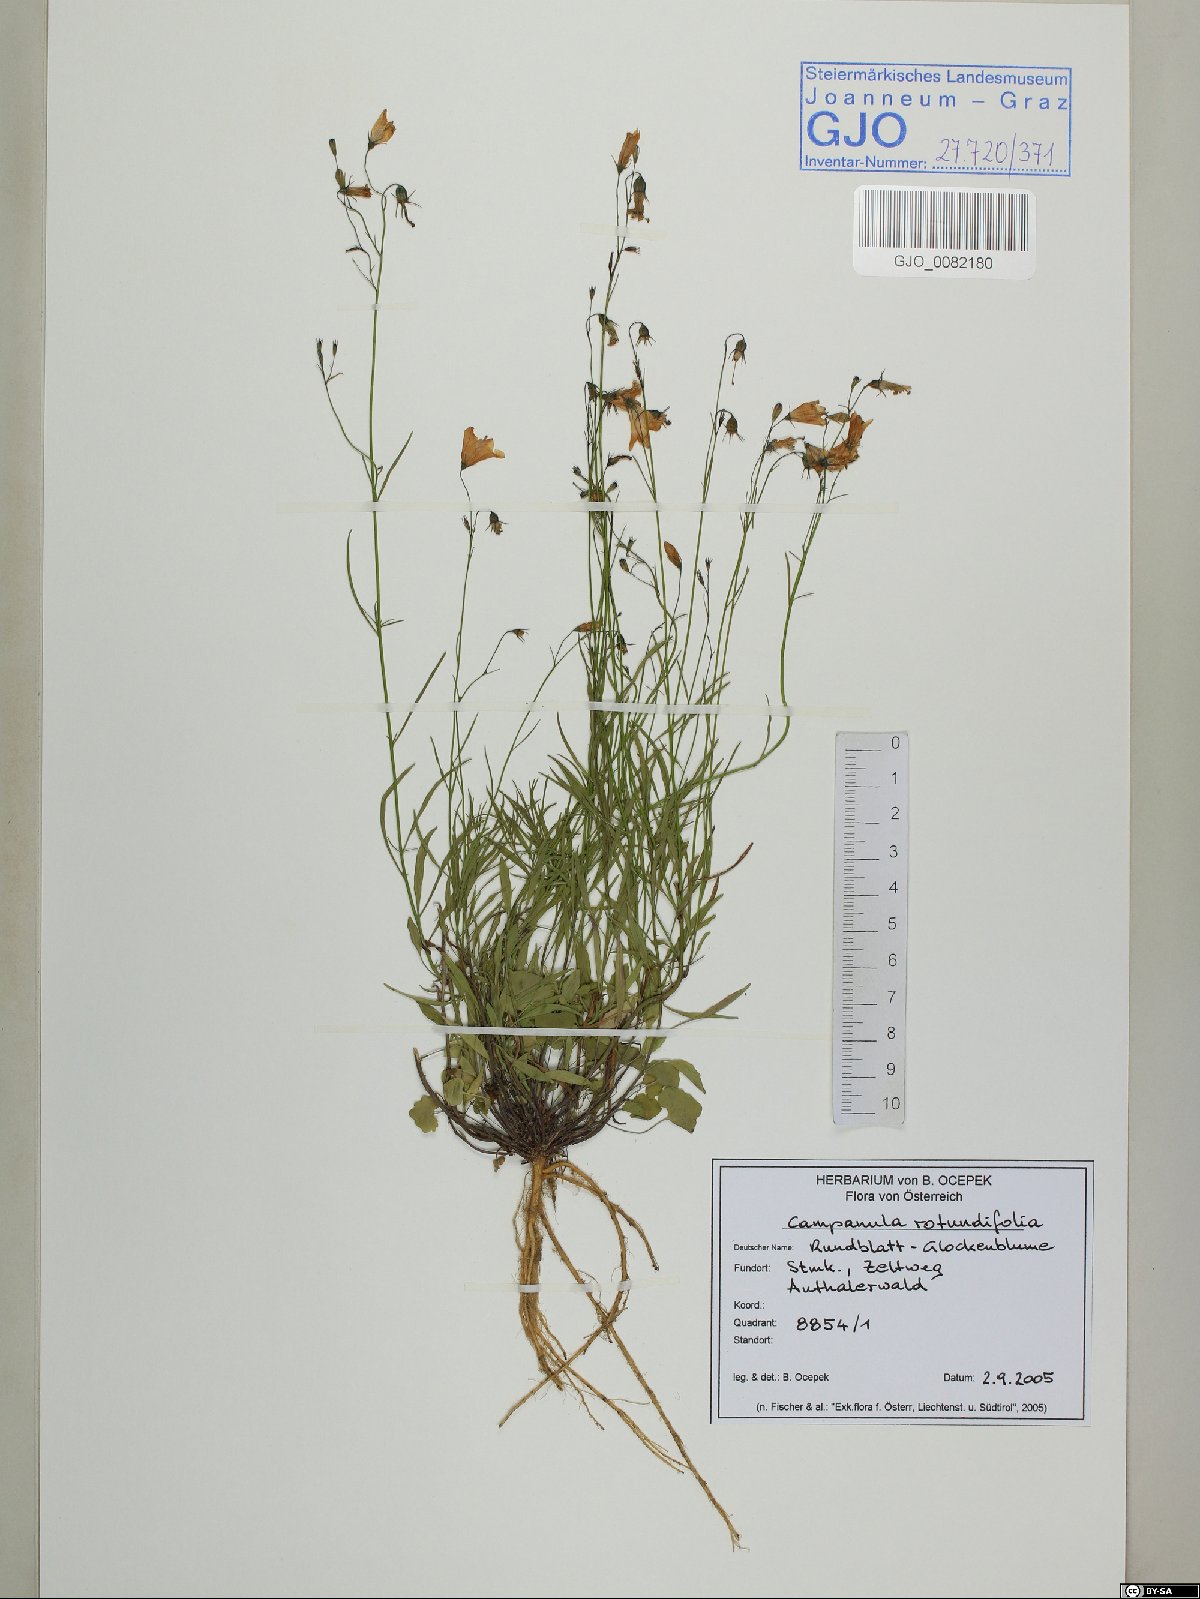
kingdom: Plantae
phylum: Tracheophyta
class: Magnoliopsida
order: Asterales
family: Campanulaceae
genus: Campanula
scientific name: Campanula rotundifolia
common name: Harebell
